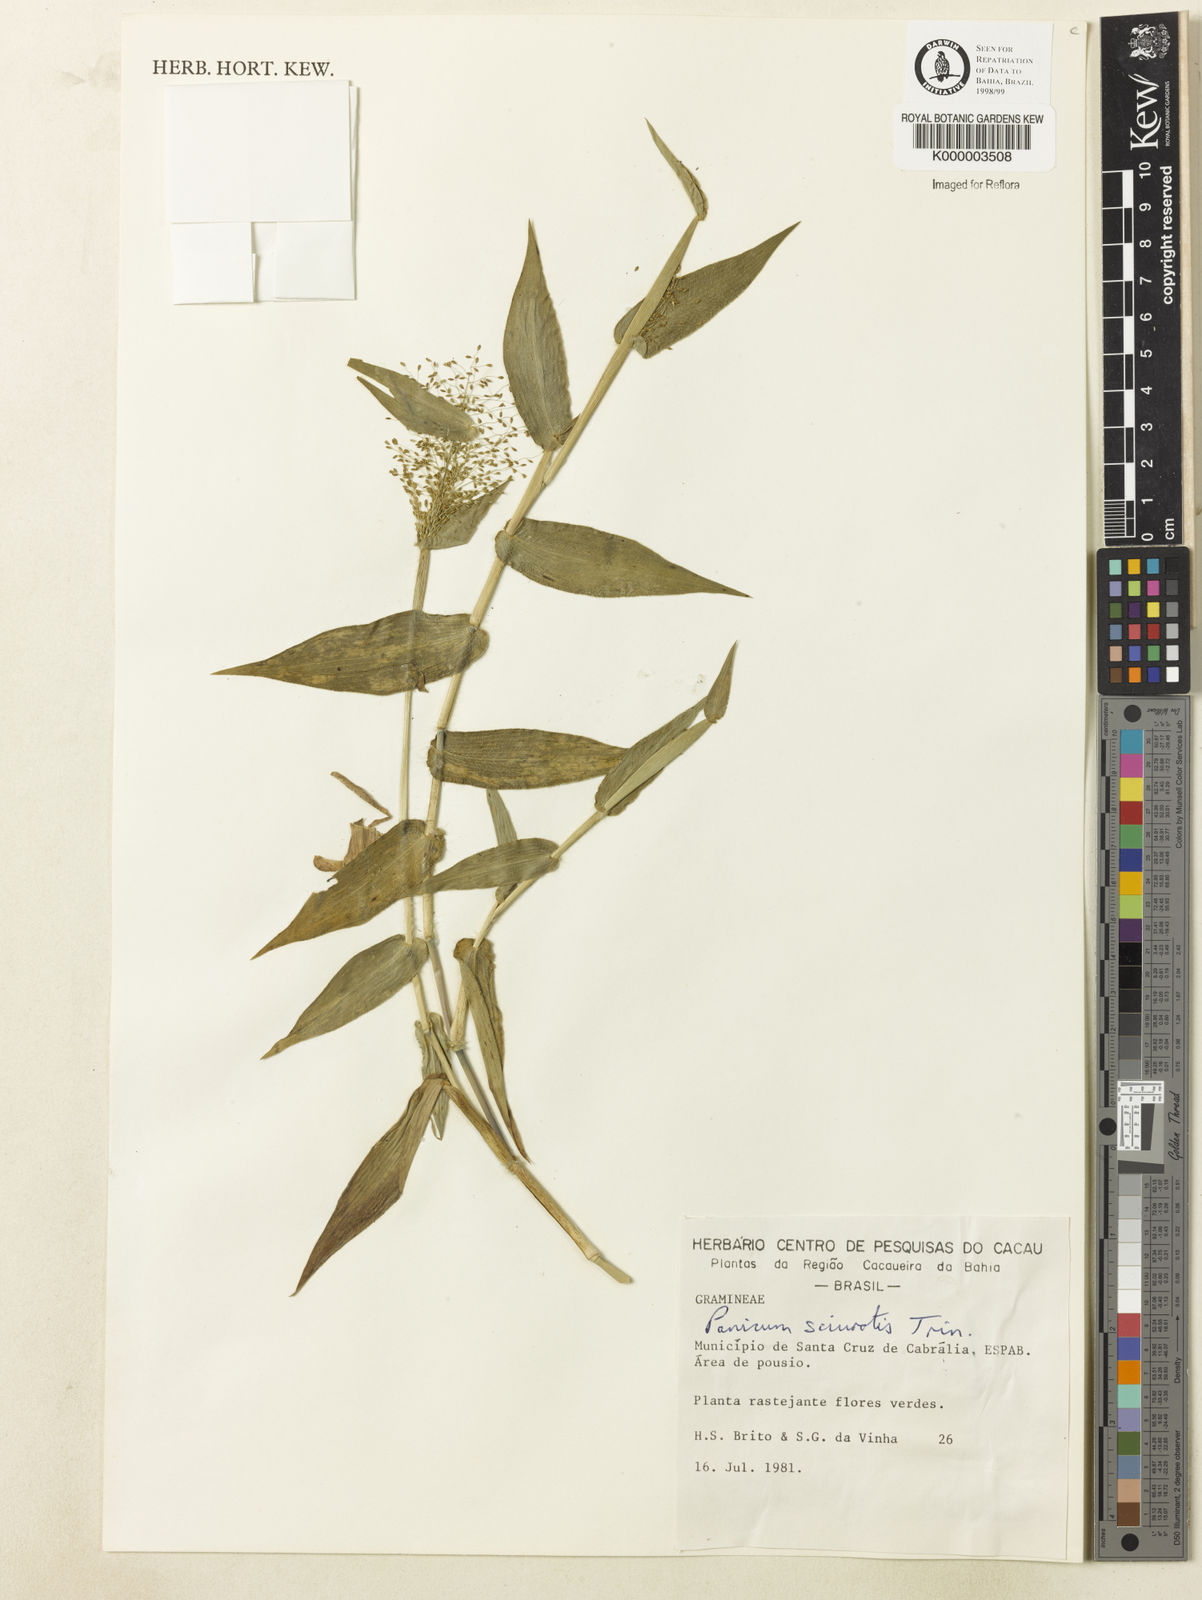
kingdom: Plantae
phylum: Tracheophyta
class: Liliopsida
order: Poales
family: Poaceae
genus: Dichanthelium
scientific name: Dichanthelium sciurotoides
